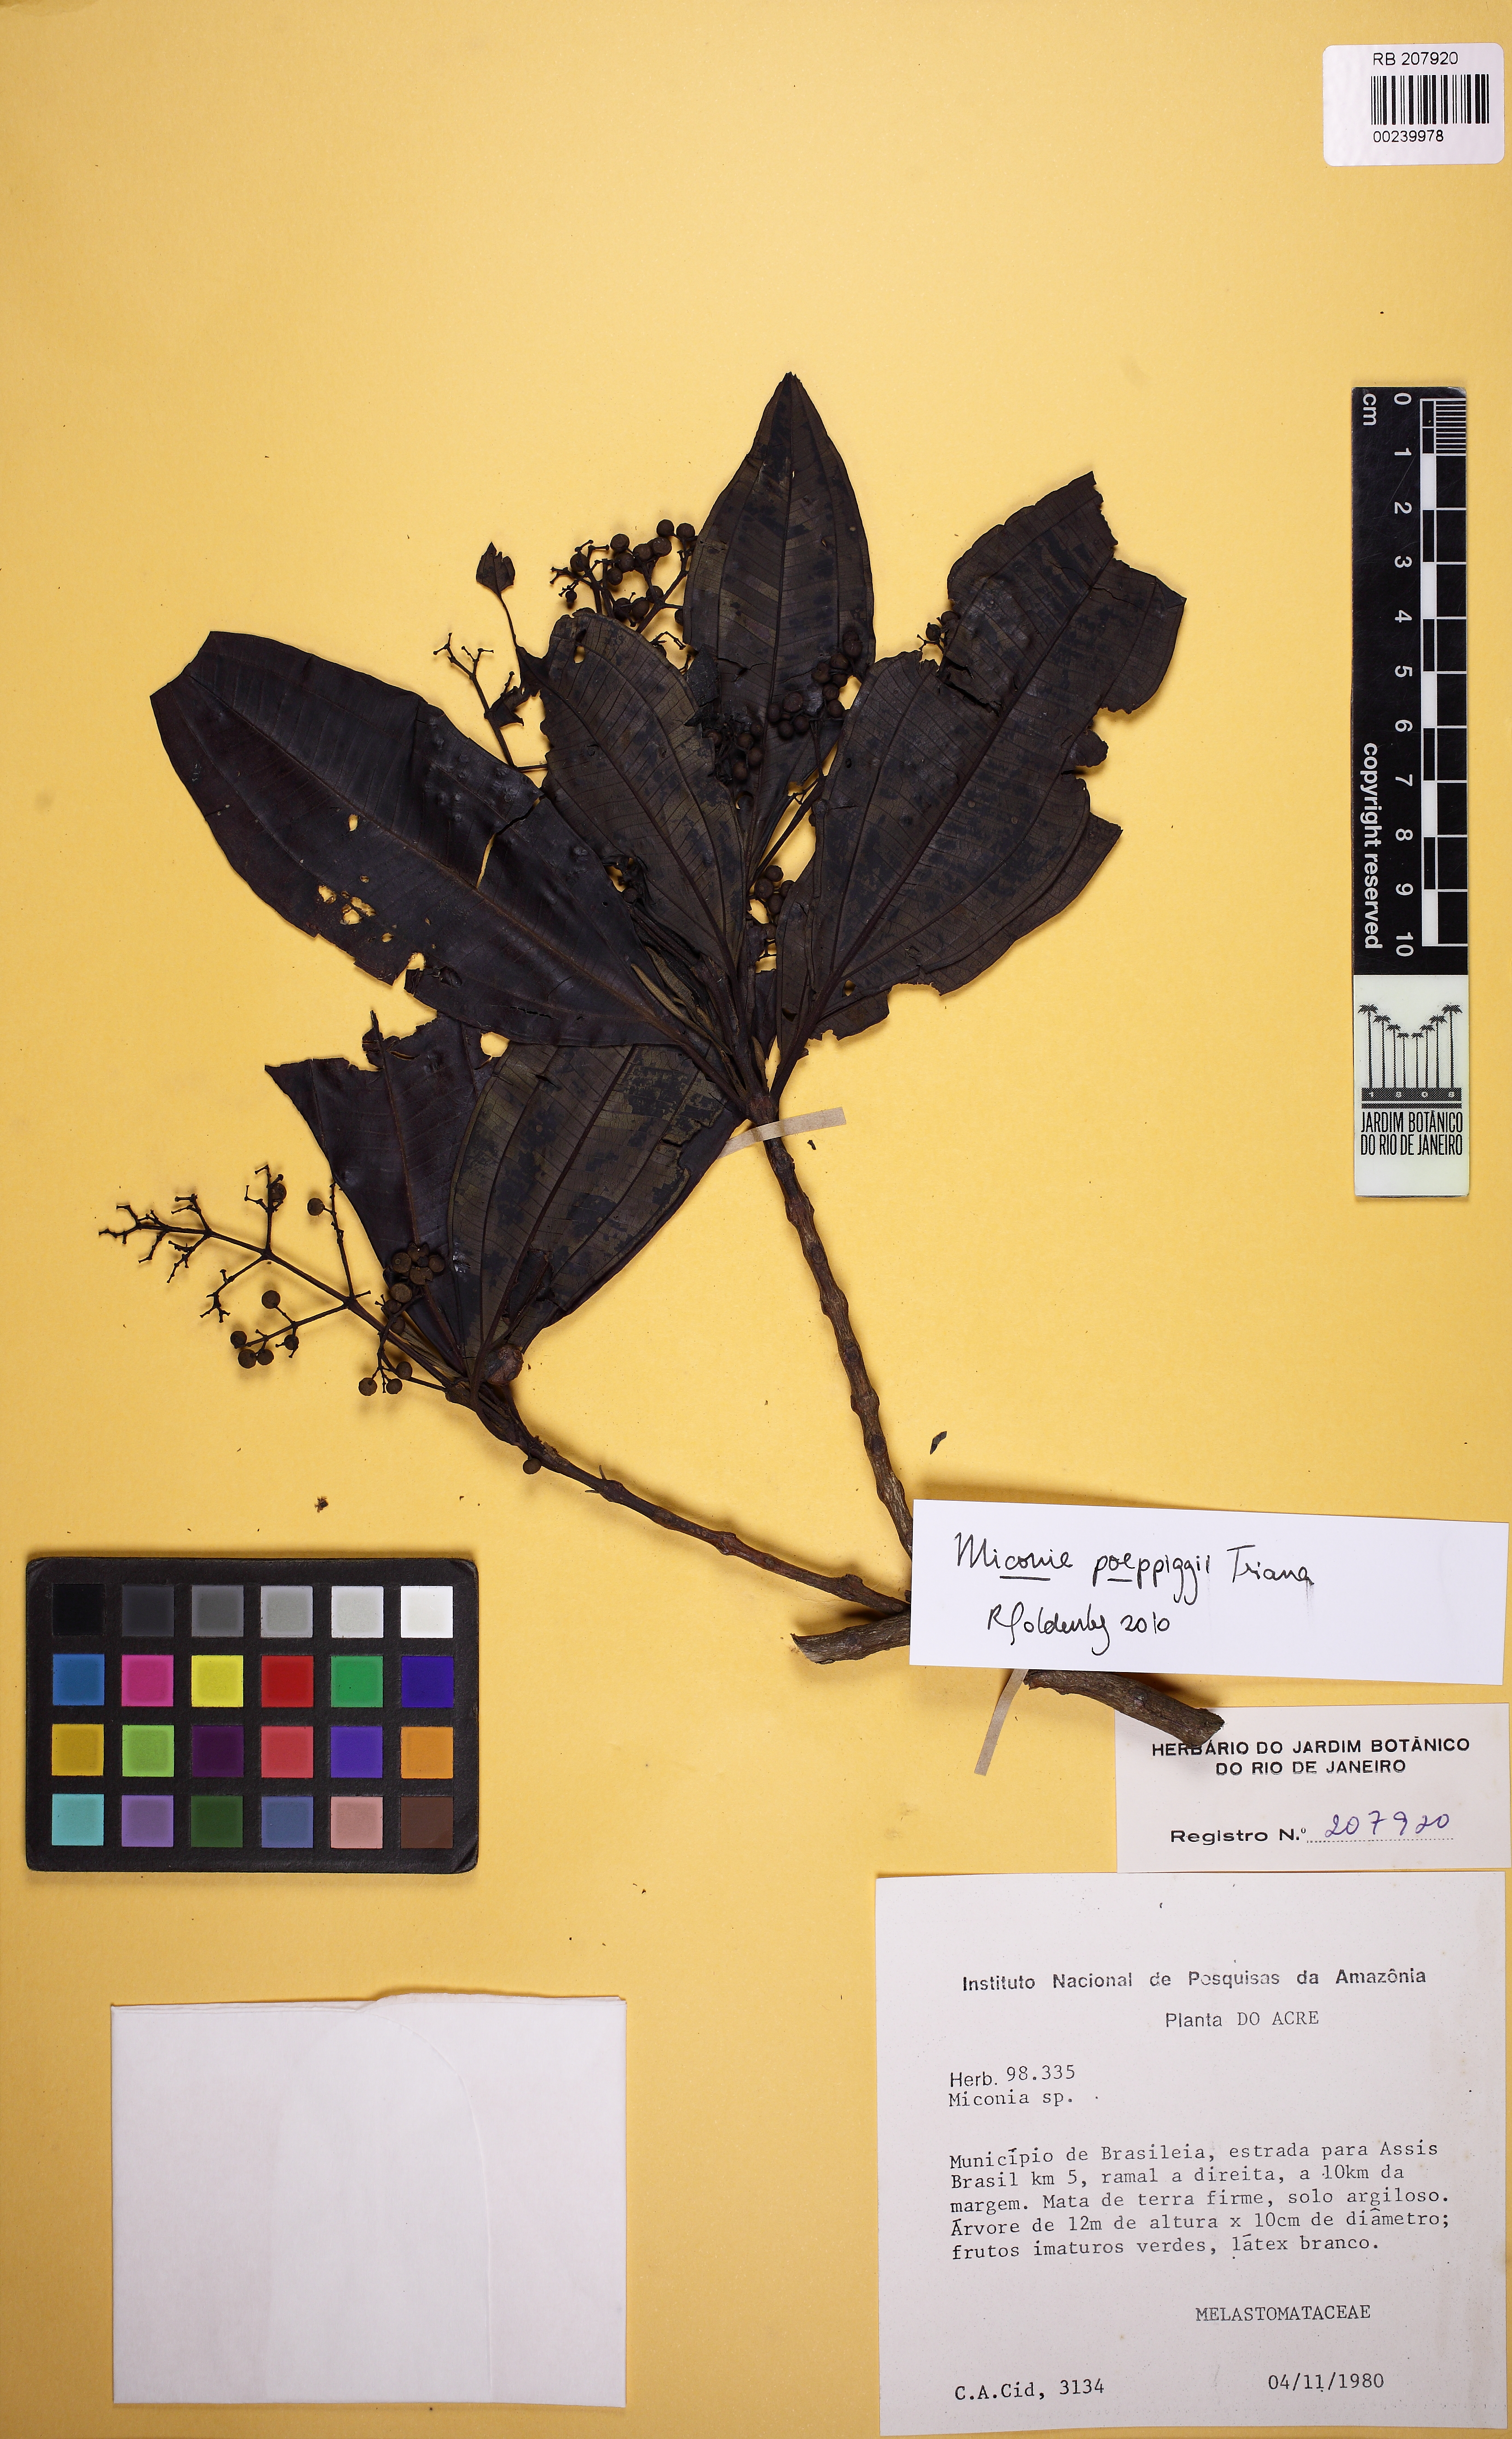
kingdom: Plantae
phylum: Tracheophyta
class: Magnoliopsida
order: Myrtales
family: Melastomataceae
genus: Miconia
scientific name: Miconia poeppigii
